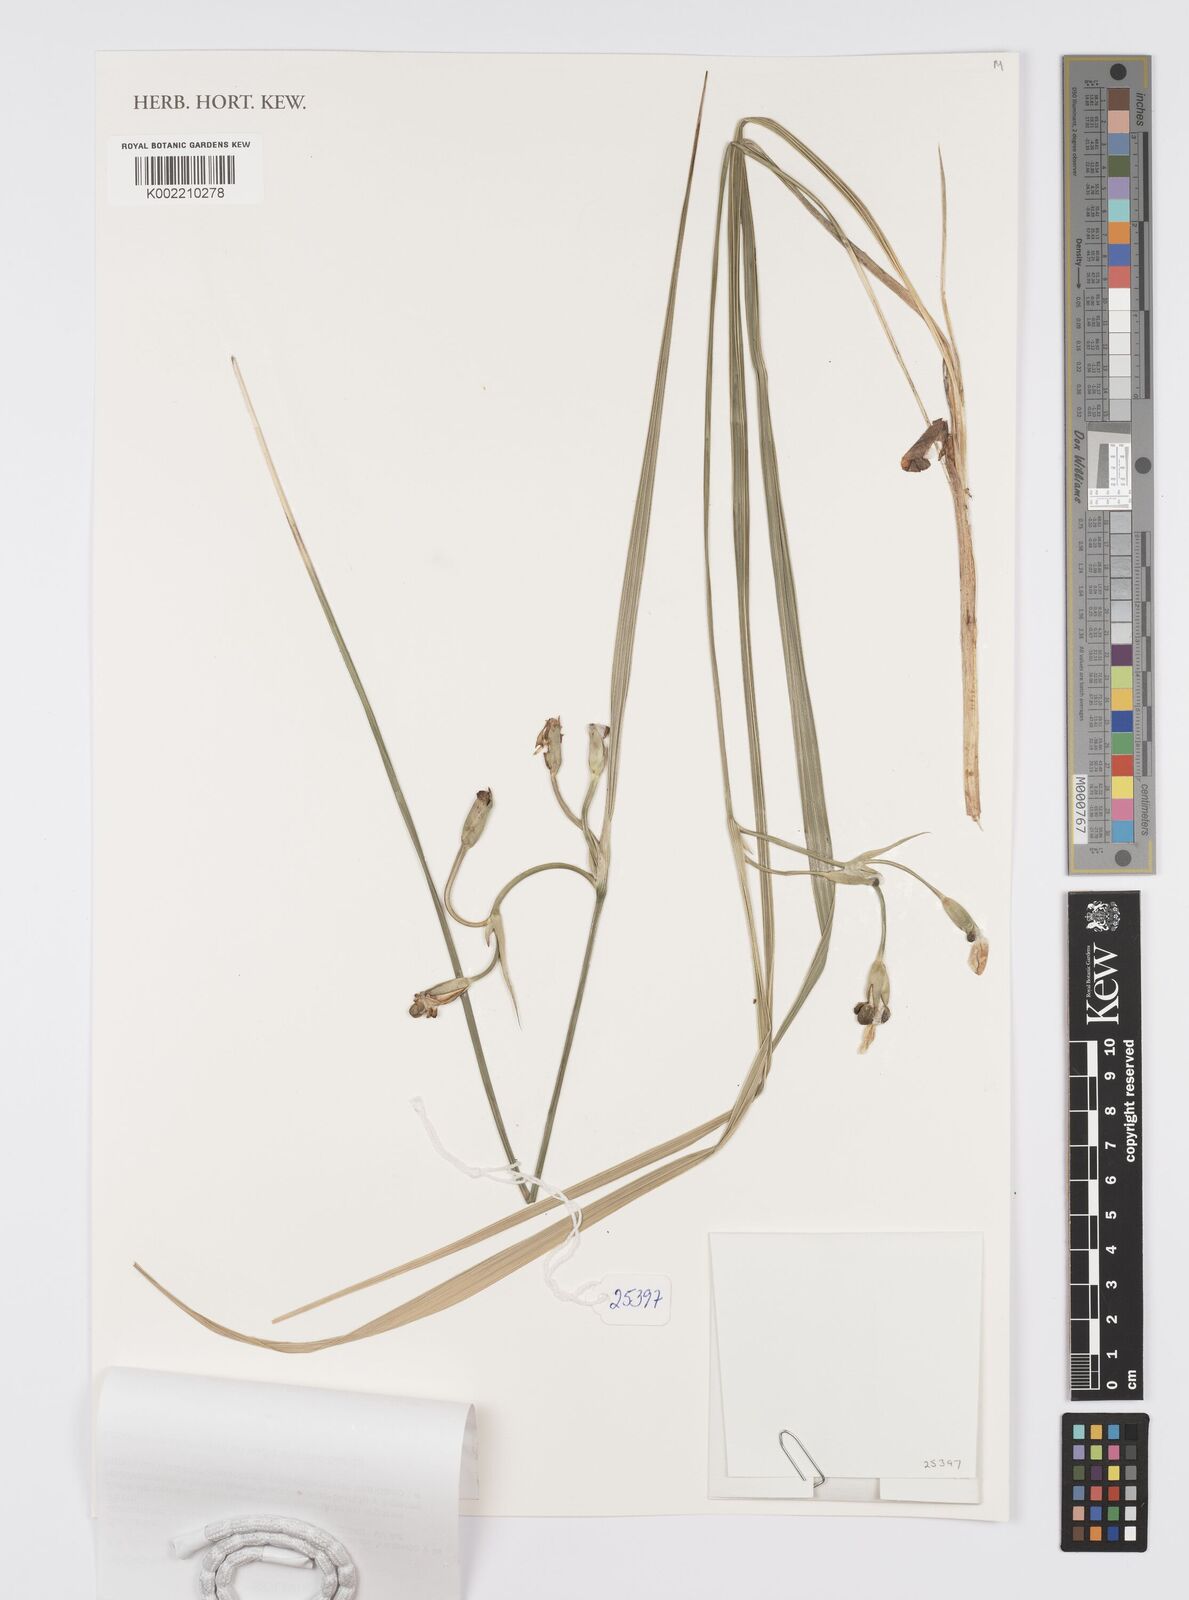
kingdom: Plantae
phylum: Tracheophyta
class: Liliopsida
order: Asparagales
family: Iridaceae
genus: Ennealophus
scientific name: Ennealophus
